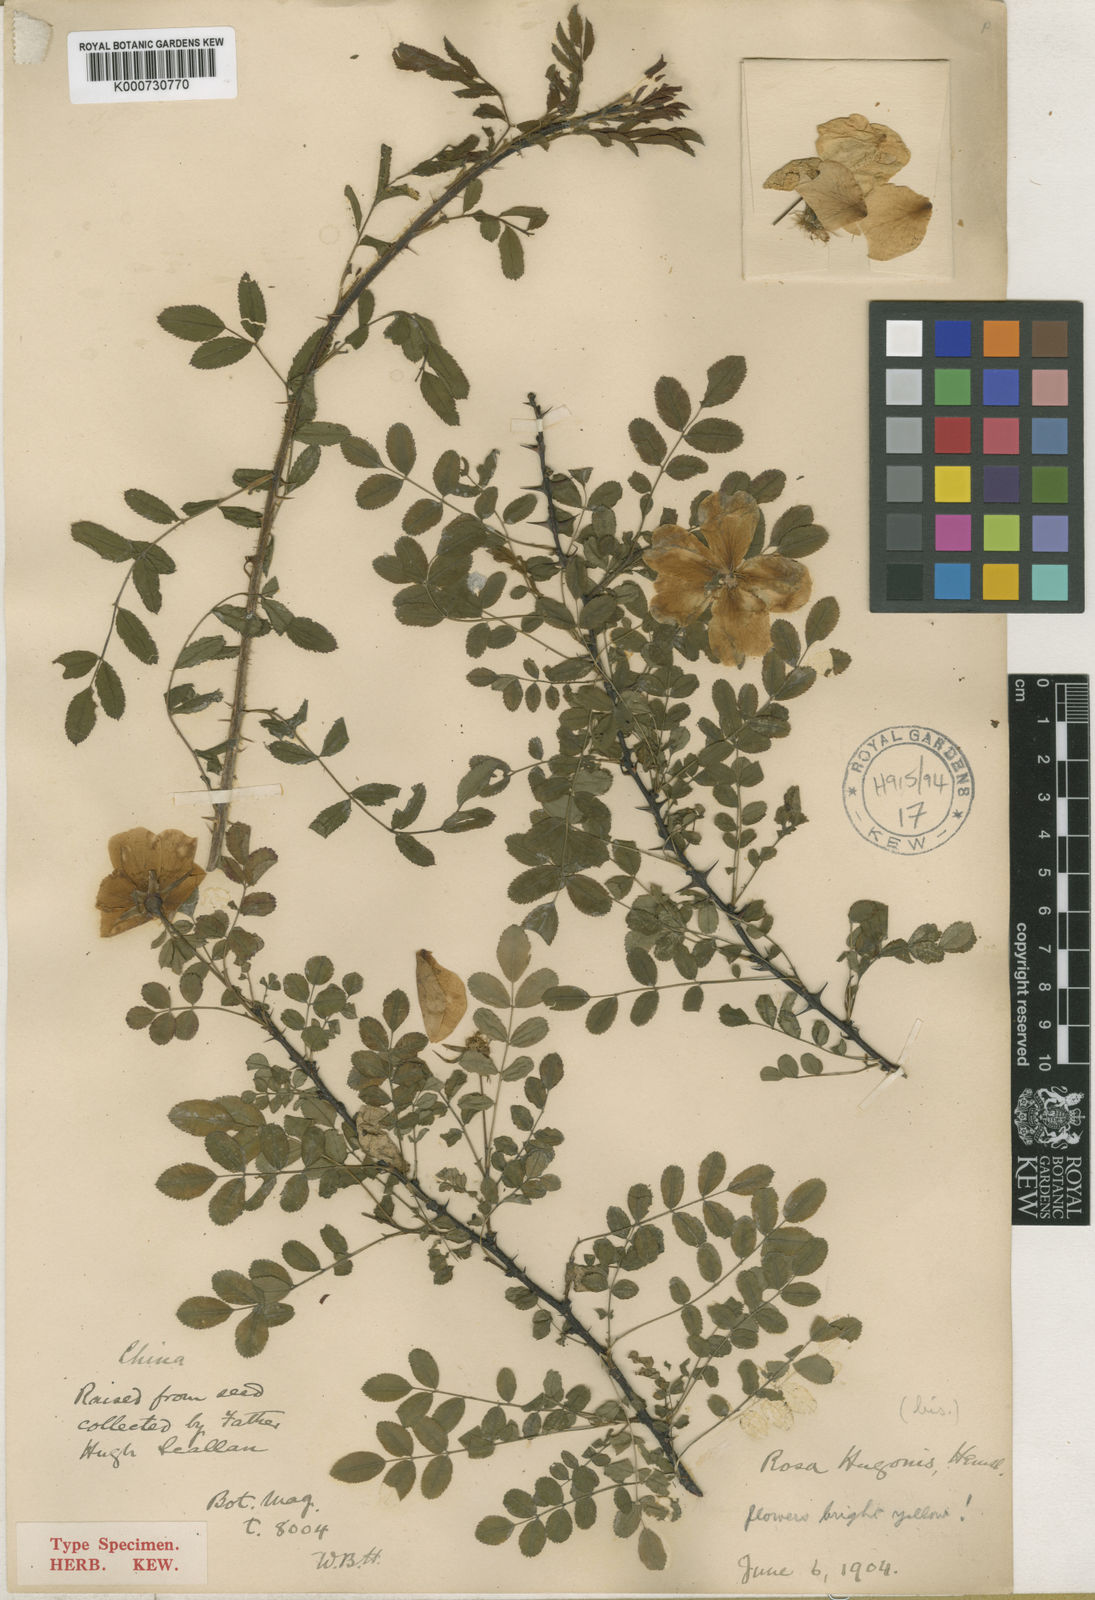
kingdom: Plantae
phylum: Tracheophyta
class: Magnoliopsida
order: Rosales
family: Rosaceae
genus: Rosa
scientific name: Rosa xanthina
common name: Yellow rose
